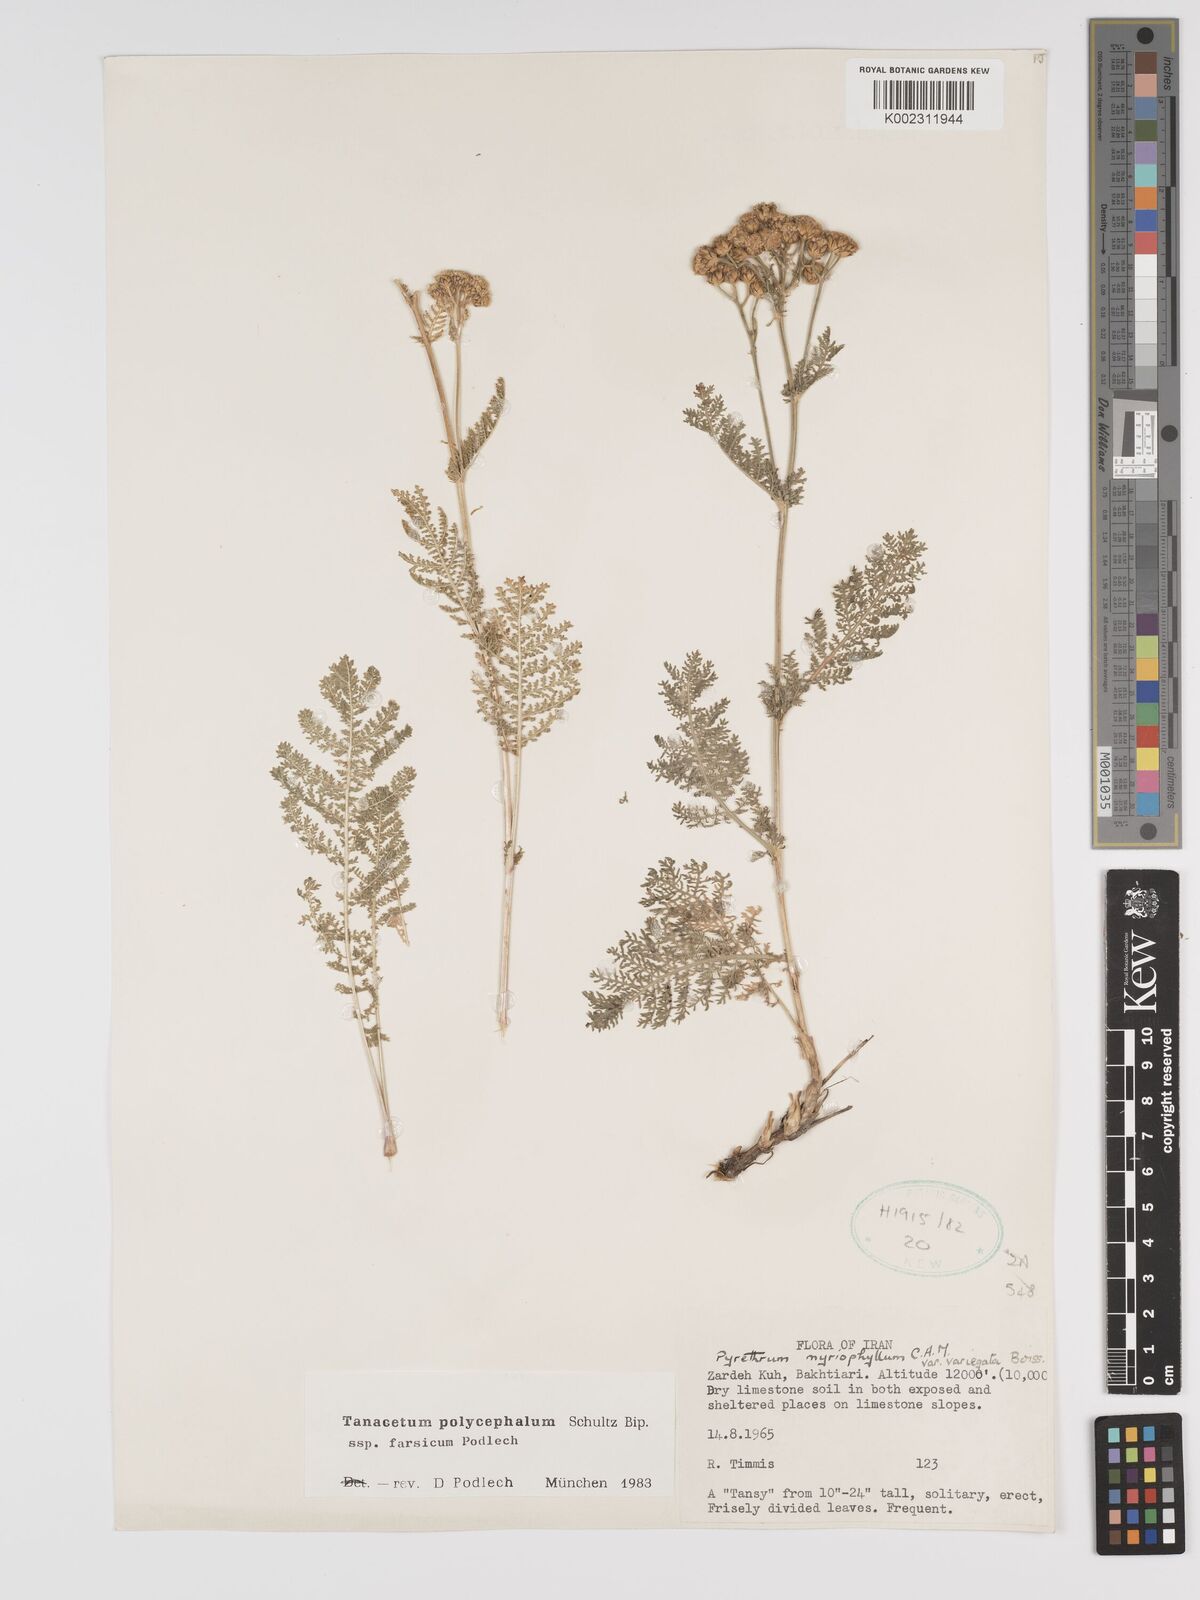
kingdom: Plantae
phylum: Tracheophyta
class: Magnoliopsida
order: Asterales
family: Asteraceae
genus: Tanacetum
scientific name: Tanacetum polycephalum
